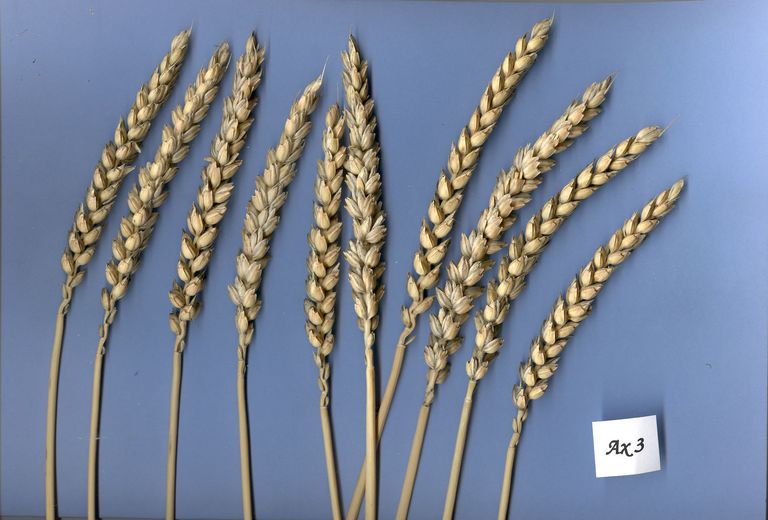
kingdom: Plantae
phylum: Tracheophyta
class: Liliopsida
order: Poales
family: Poaceae
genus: Triticum
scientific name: Triticum aestivum
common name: Common wheat
